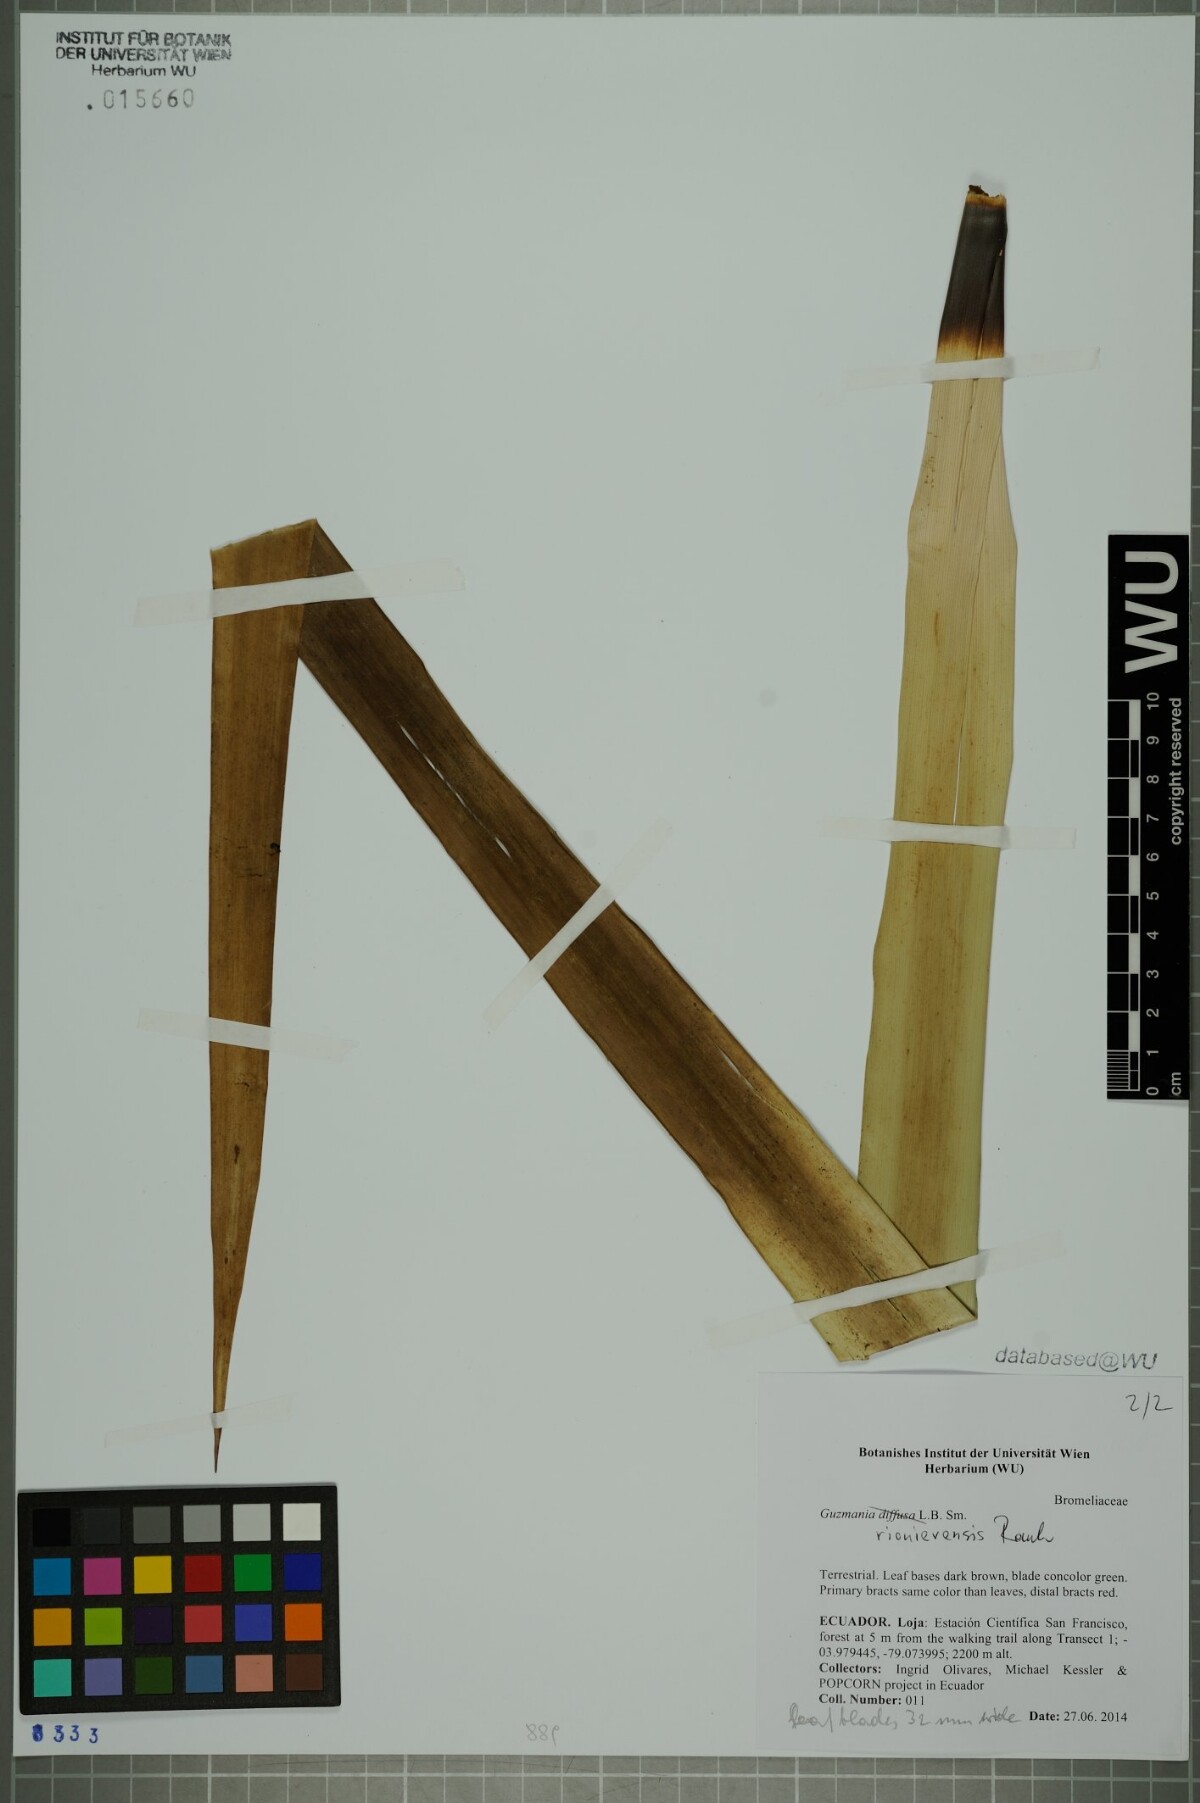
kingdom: Plantae
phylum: Tracheophyta
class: Liliopsida
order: Poales
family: Bromeliaceae
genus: Guzmania
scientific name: Guzmania marantoidea
